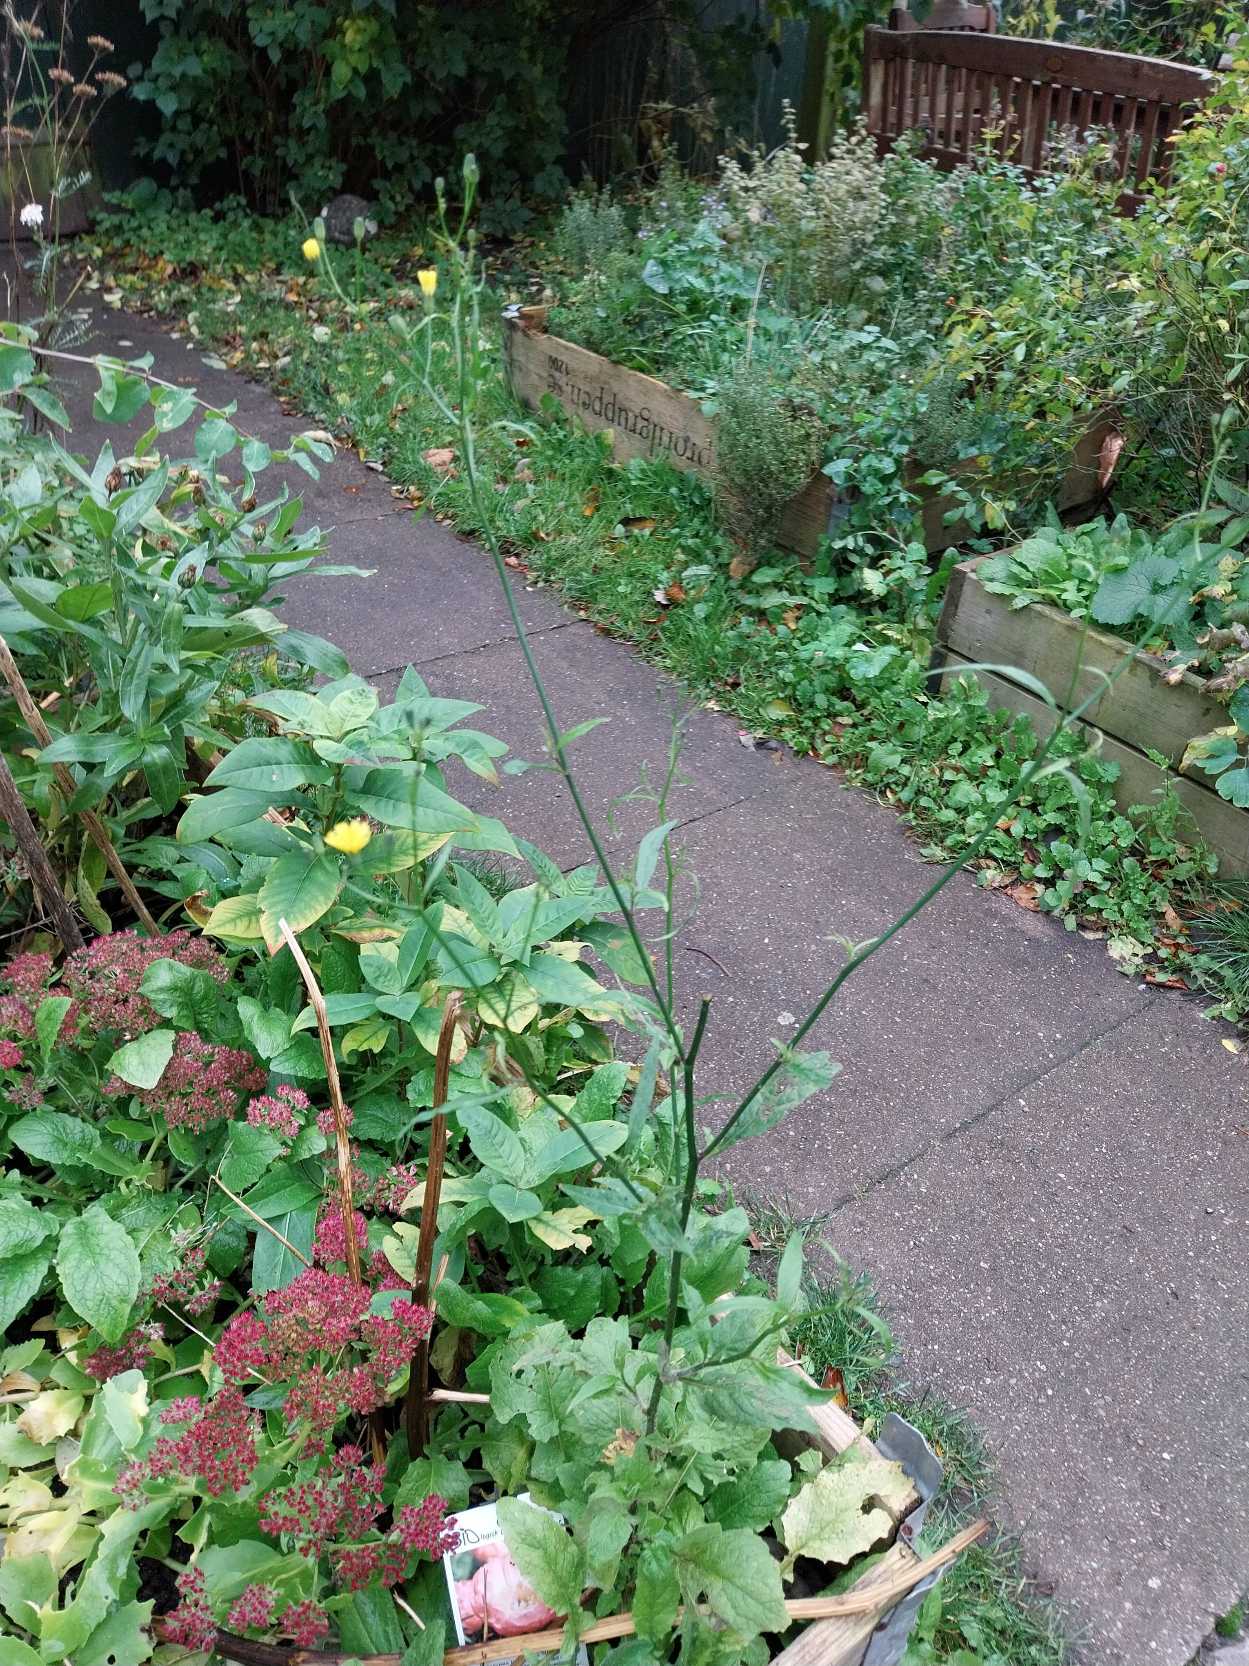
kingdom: Plantae
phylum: Tracheophyta
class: Magnoliopsida
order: Asterales
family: Asteraceae
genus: Lapsana
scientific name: Lapsana communis
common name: Haremad
